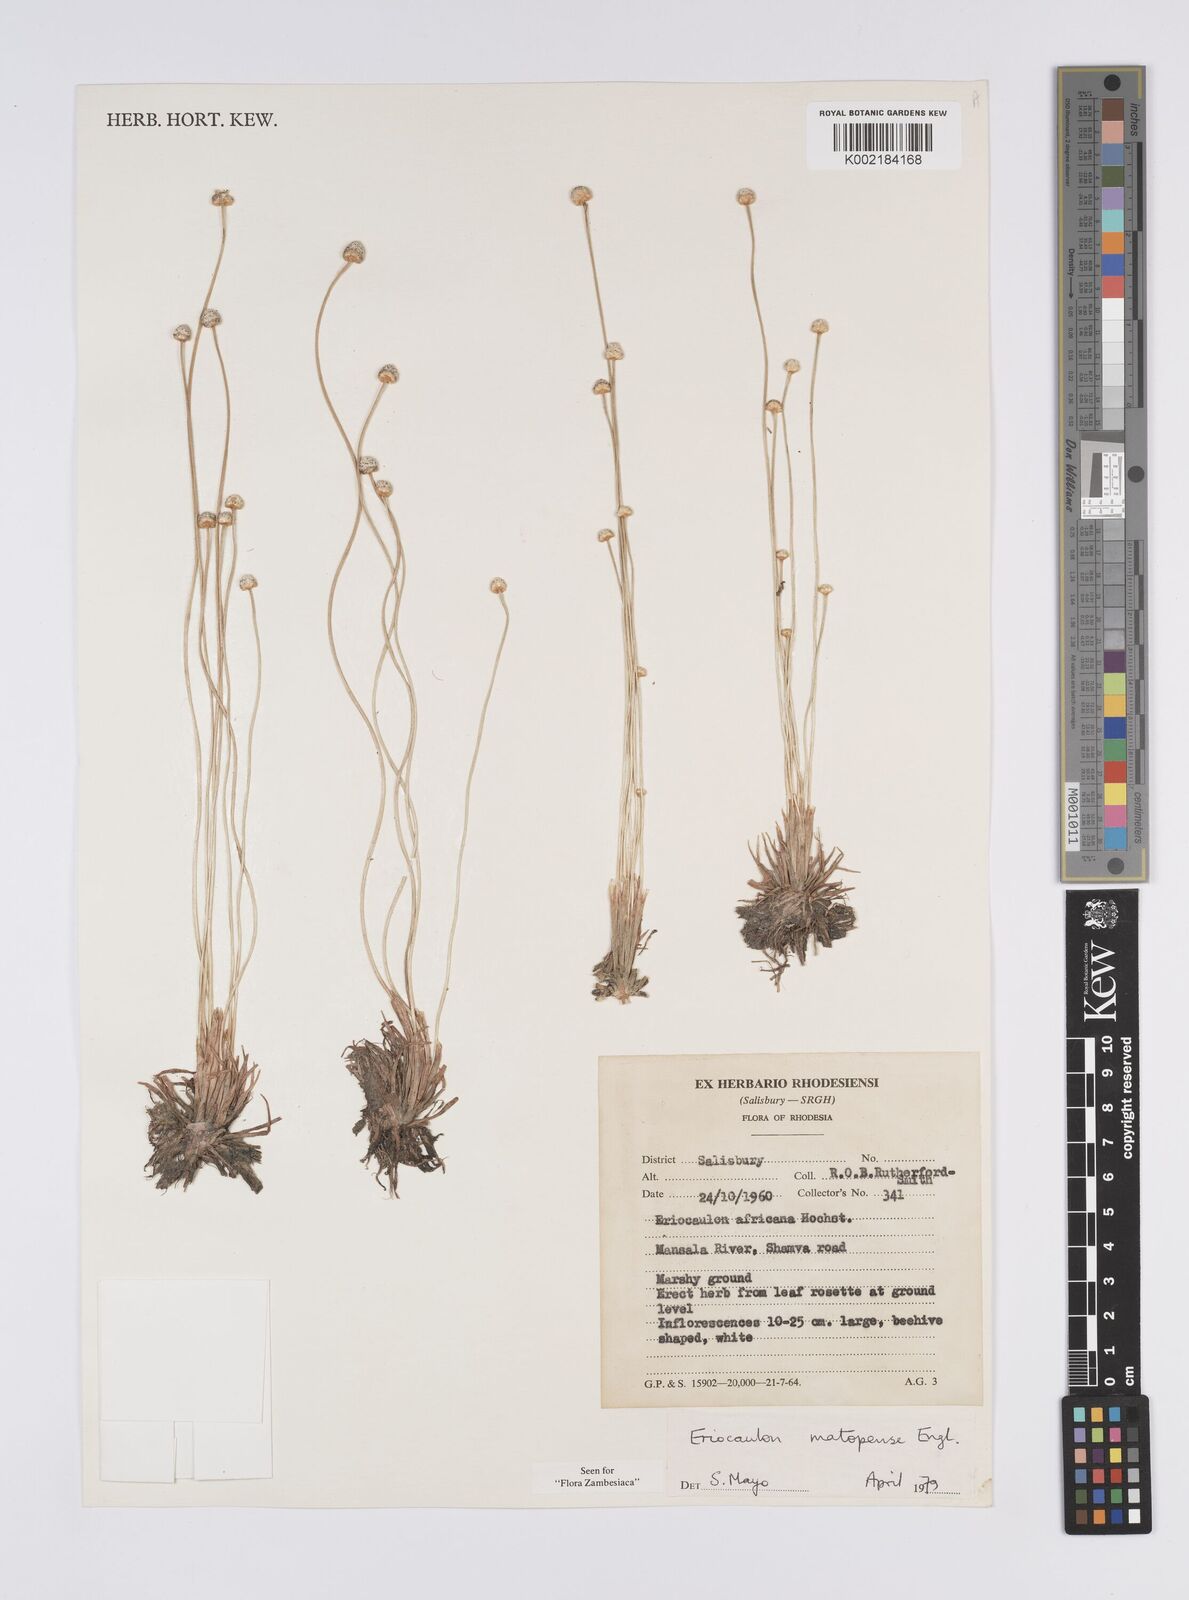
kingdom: Plantae
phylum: Tracheophyta
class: Liliopsida
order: Poales
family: Eriocaulaceae
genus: Eriocaulon
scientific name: Eriocaulon matopense
